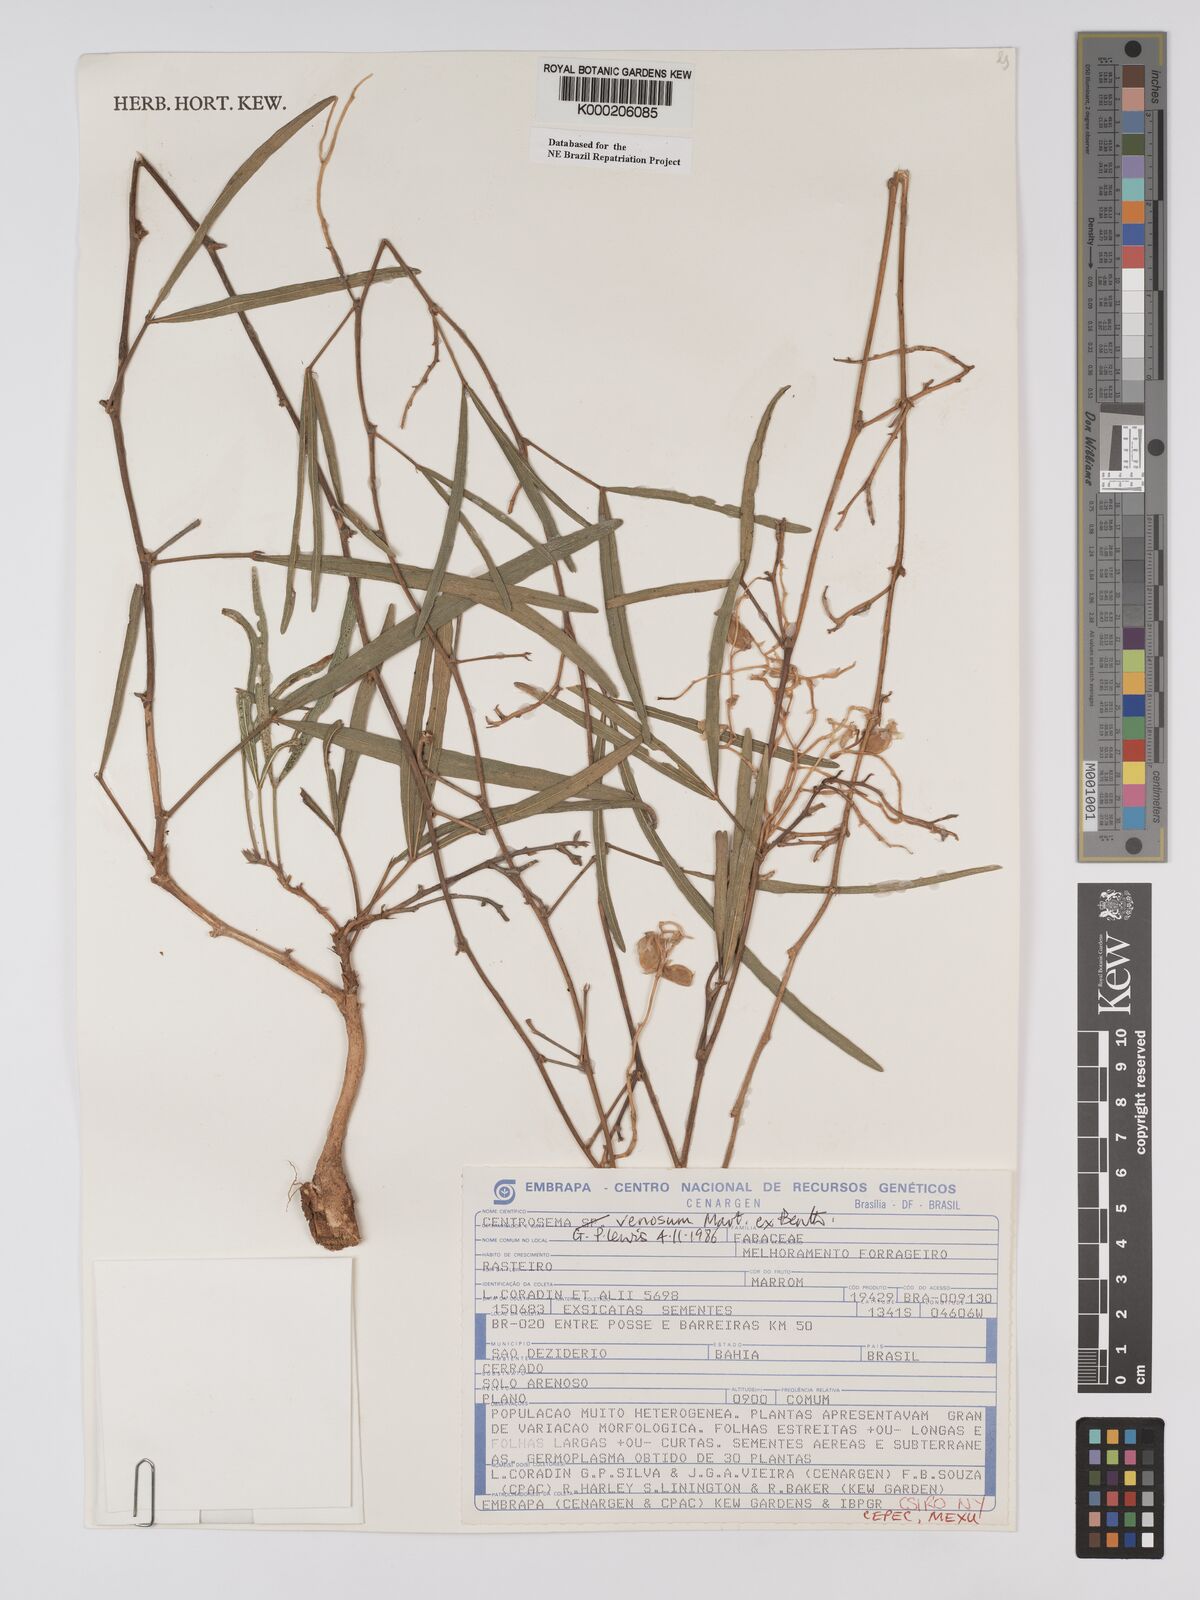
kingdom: Plantae
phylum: Tracheophyta
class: Magnoliopsida
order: Fabales
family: Fabaceae
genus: Centrosema
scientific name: Centrosema venosum
